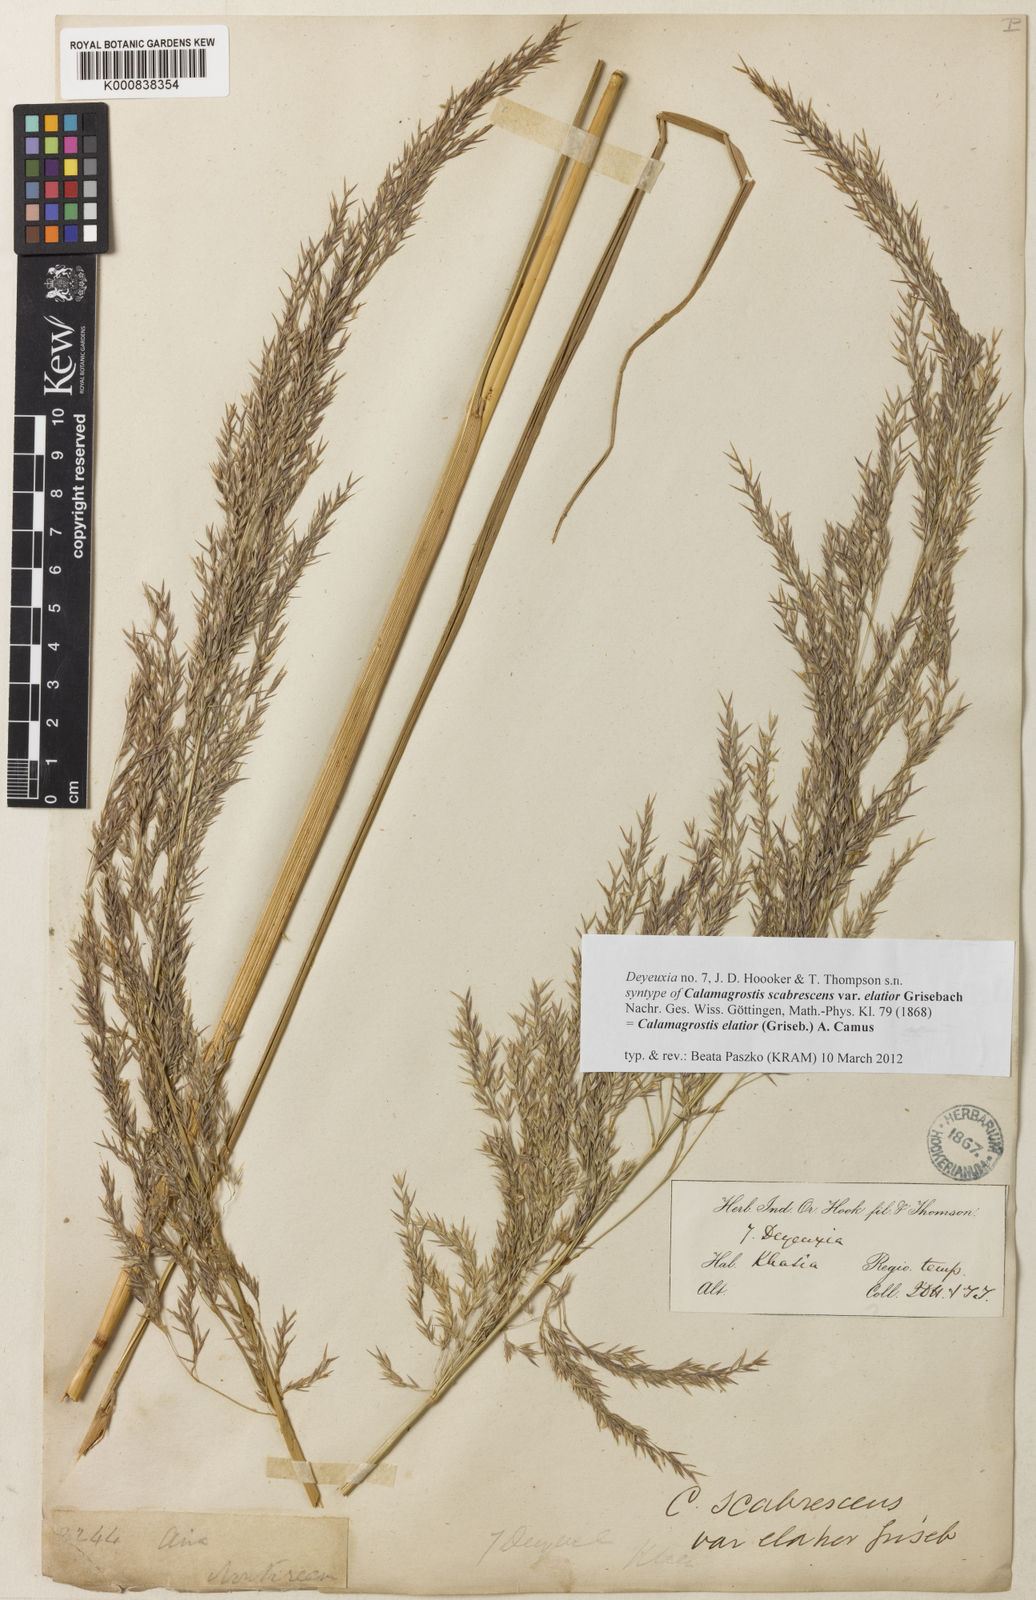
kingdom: Plantae
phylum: Tracheophyta
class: Liliopsida
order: Poales
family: Poaceae
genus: Calamagrostis
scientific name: Calamagrostis elatior
